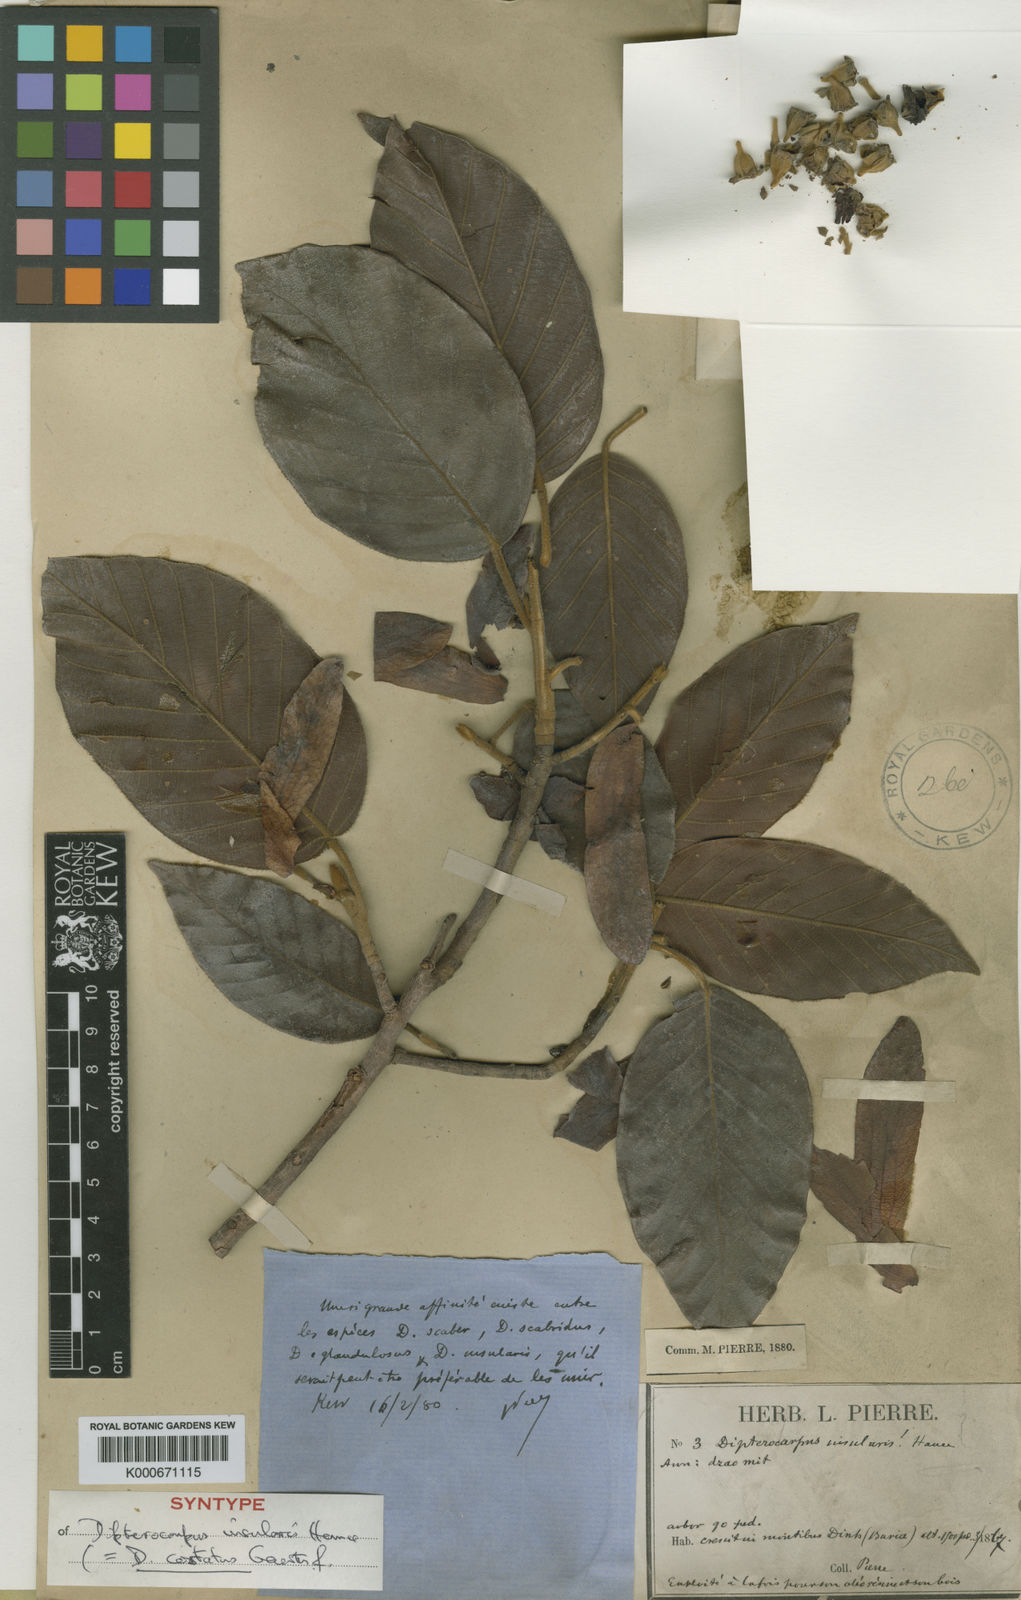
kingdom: Plantae
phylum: Tracheophyta
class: Magnoliopsida
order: Malvales
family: Dipterocarpaceae
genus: Dipterocarpus
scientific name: Dipterocarpus costatus
